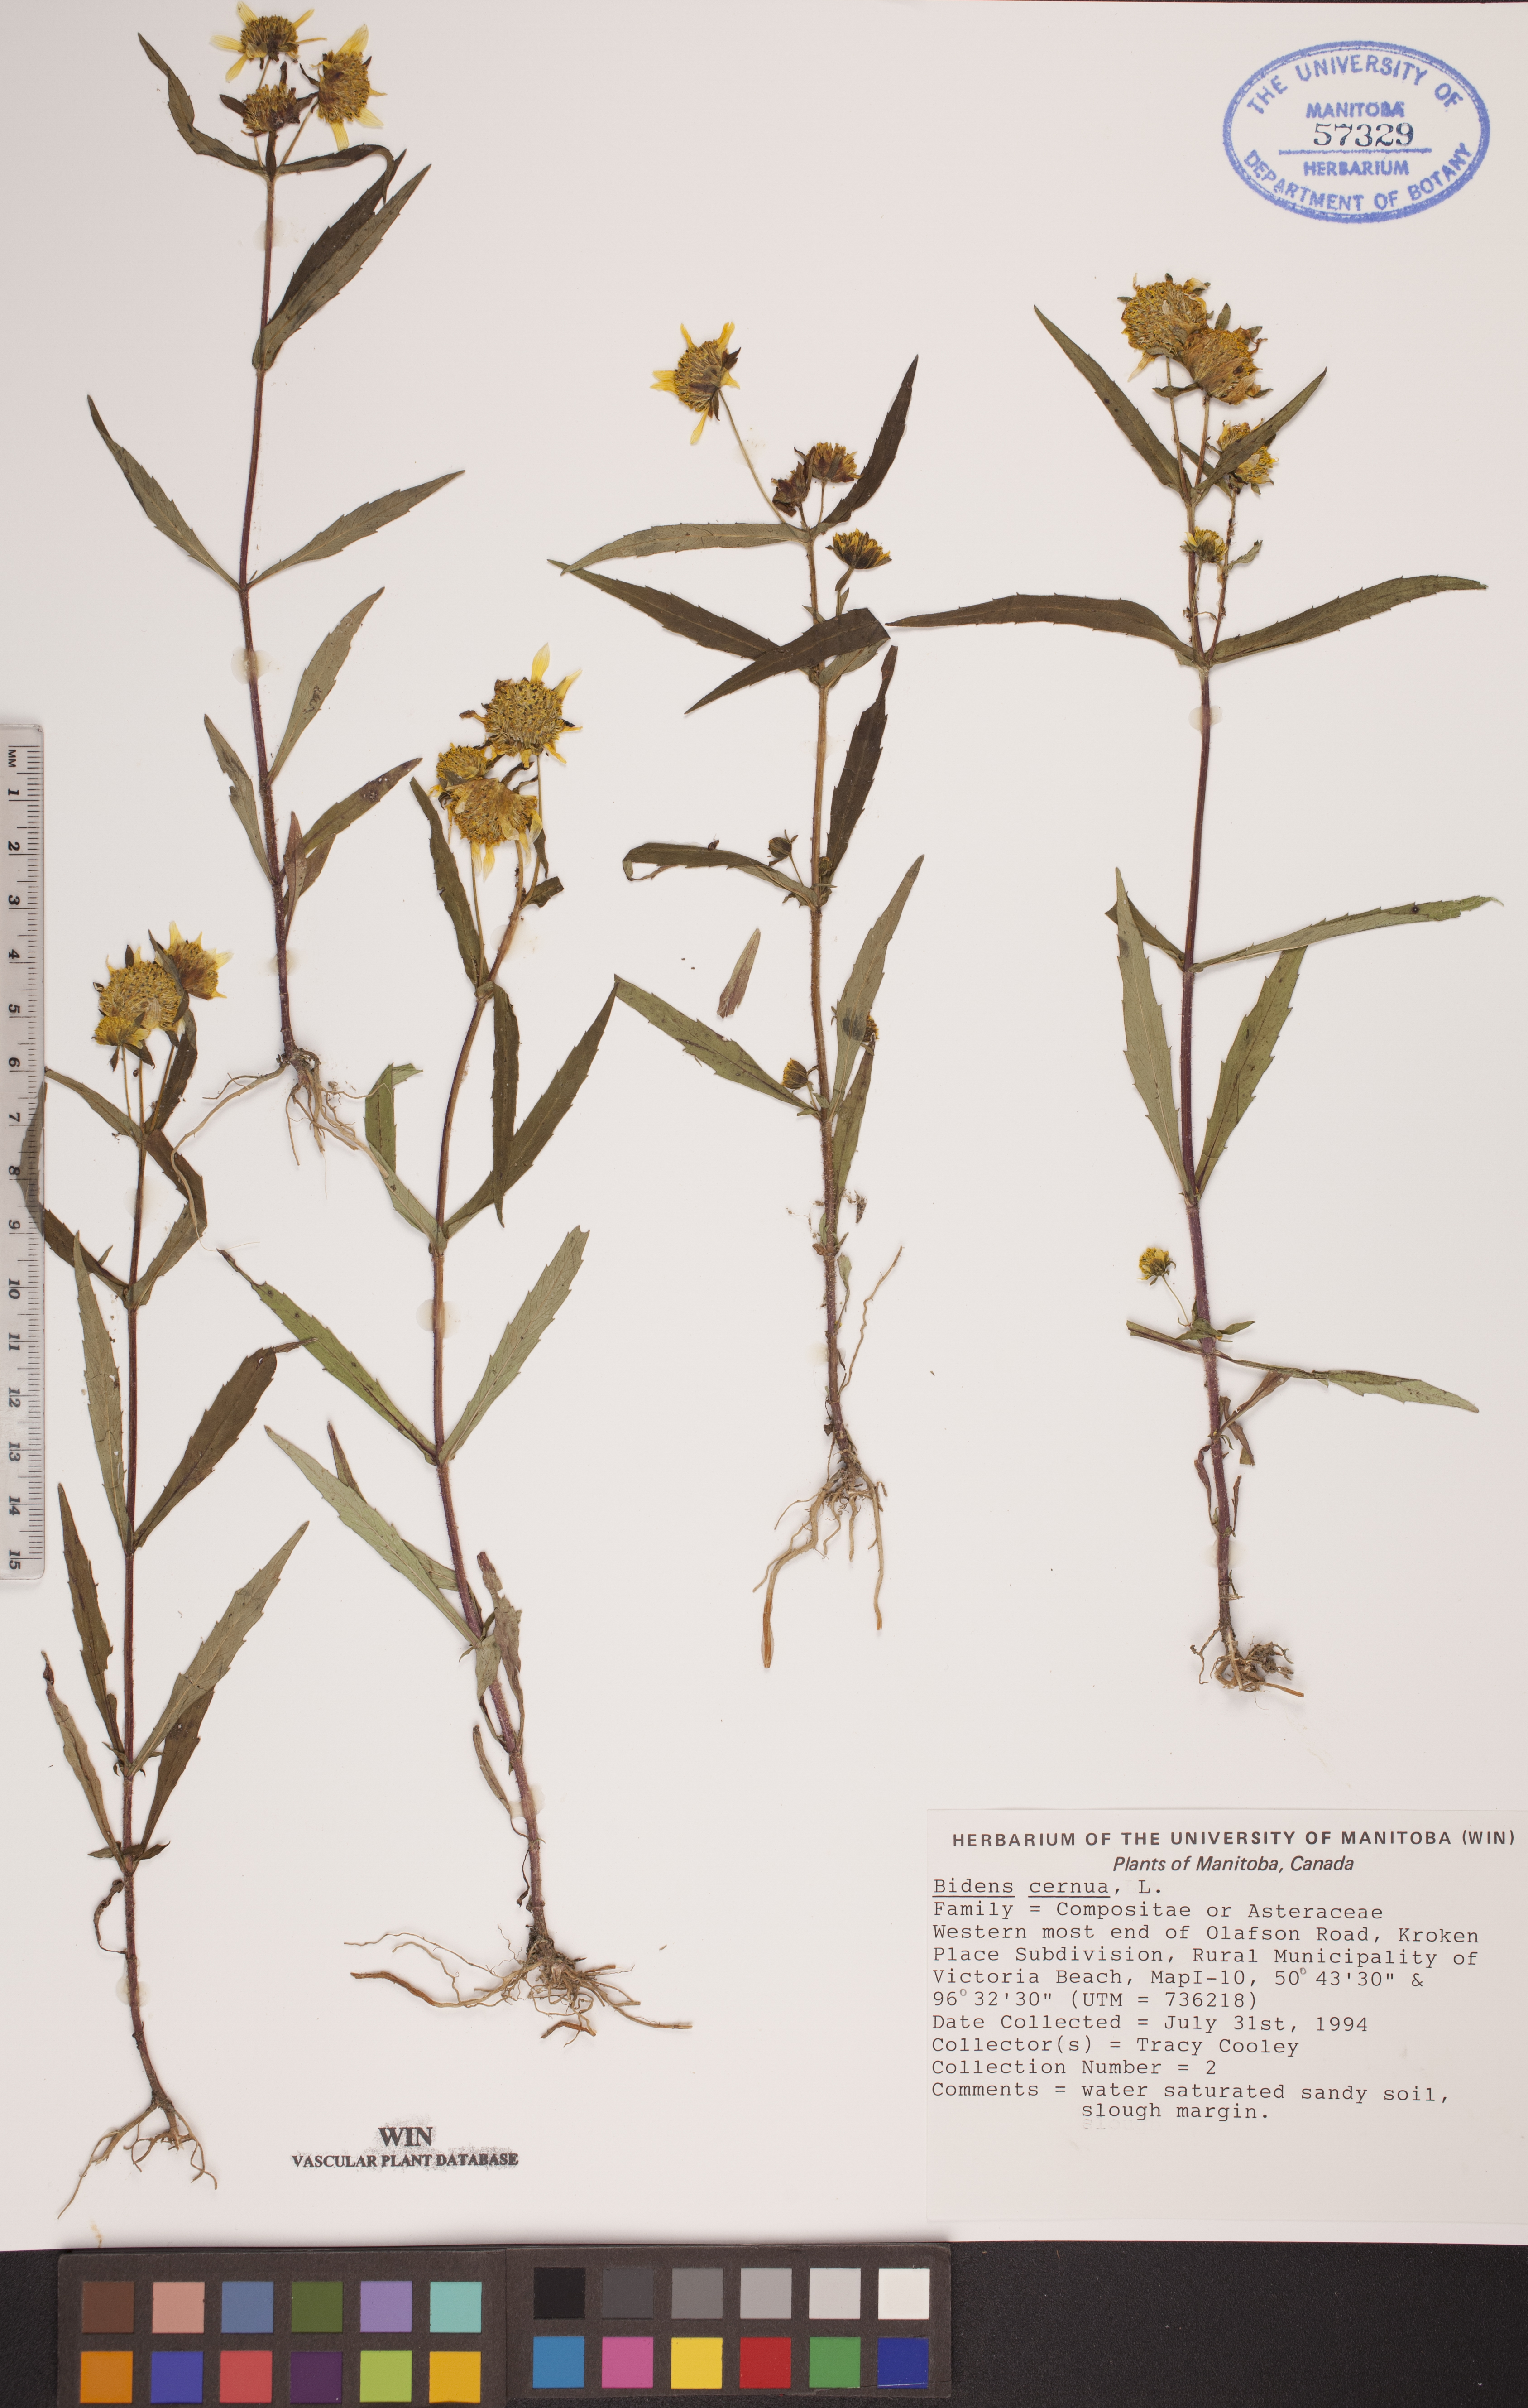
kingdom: Plantae
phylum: Tracheophyta
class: Magnoliopsida
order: Asterales
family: Asteraceae
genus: Bidens
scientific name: Bidens cernua
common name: Nodding bur-marigold
